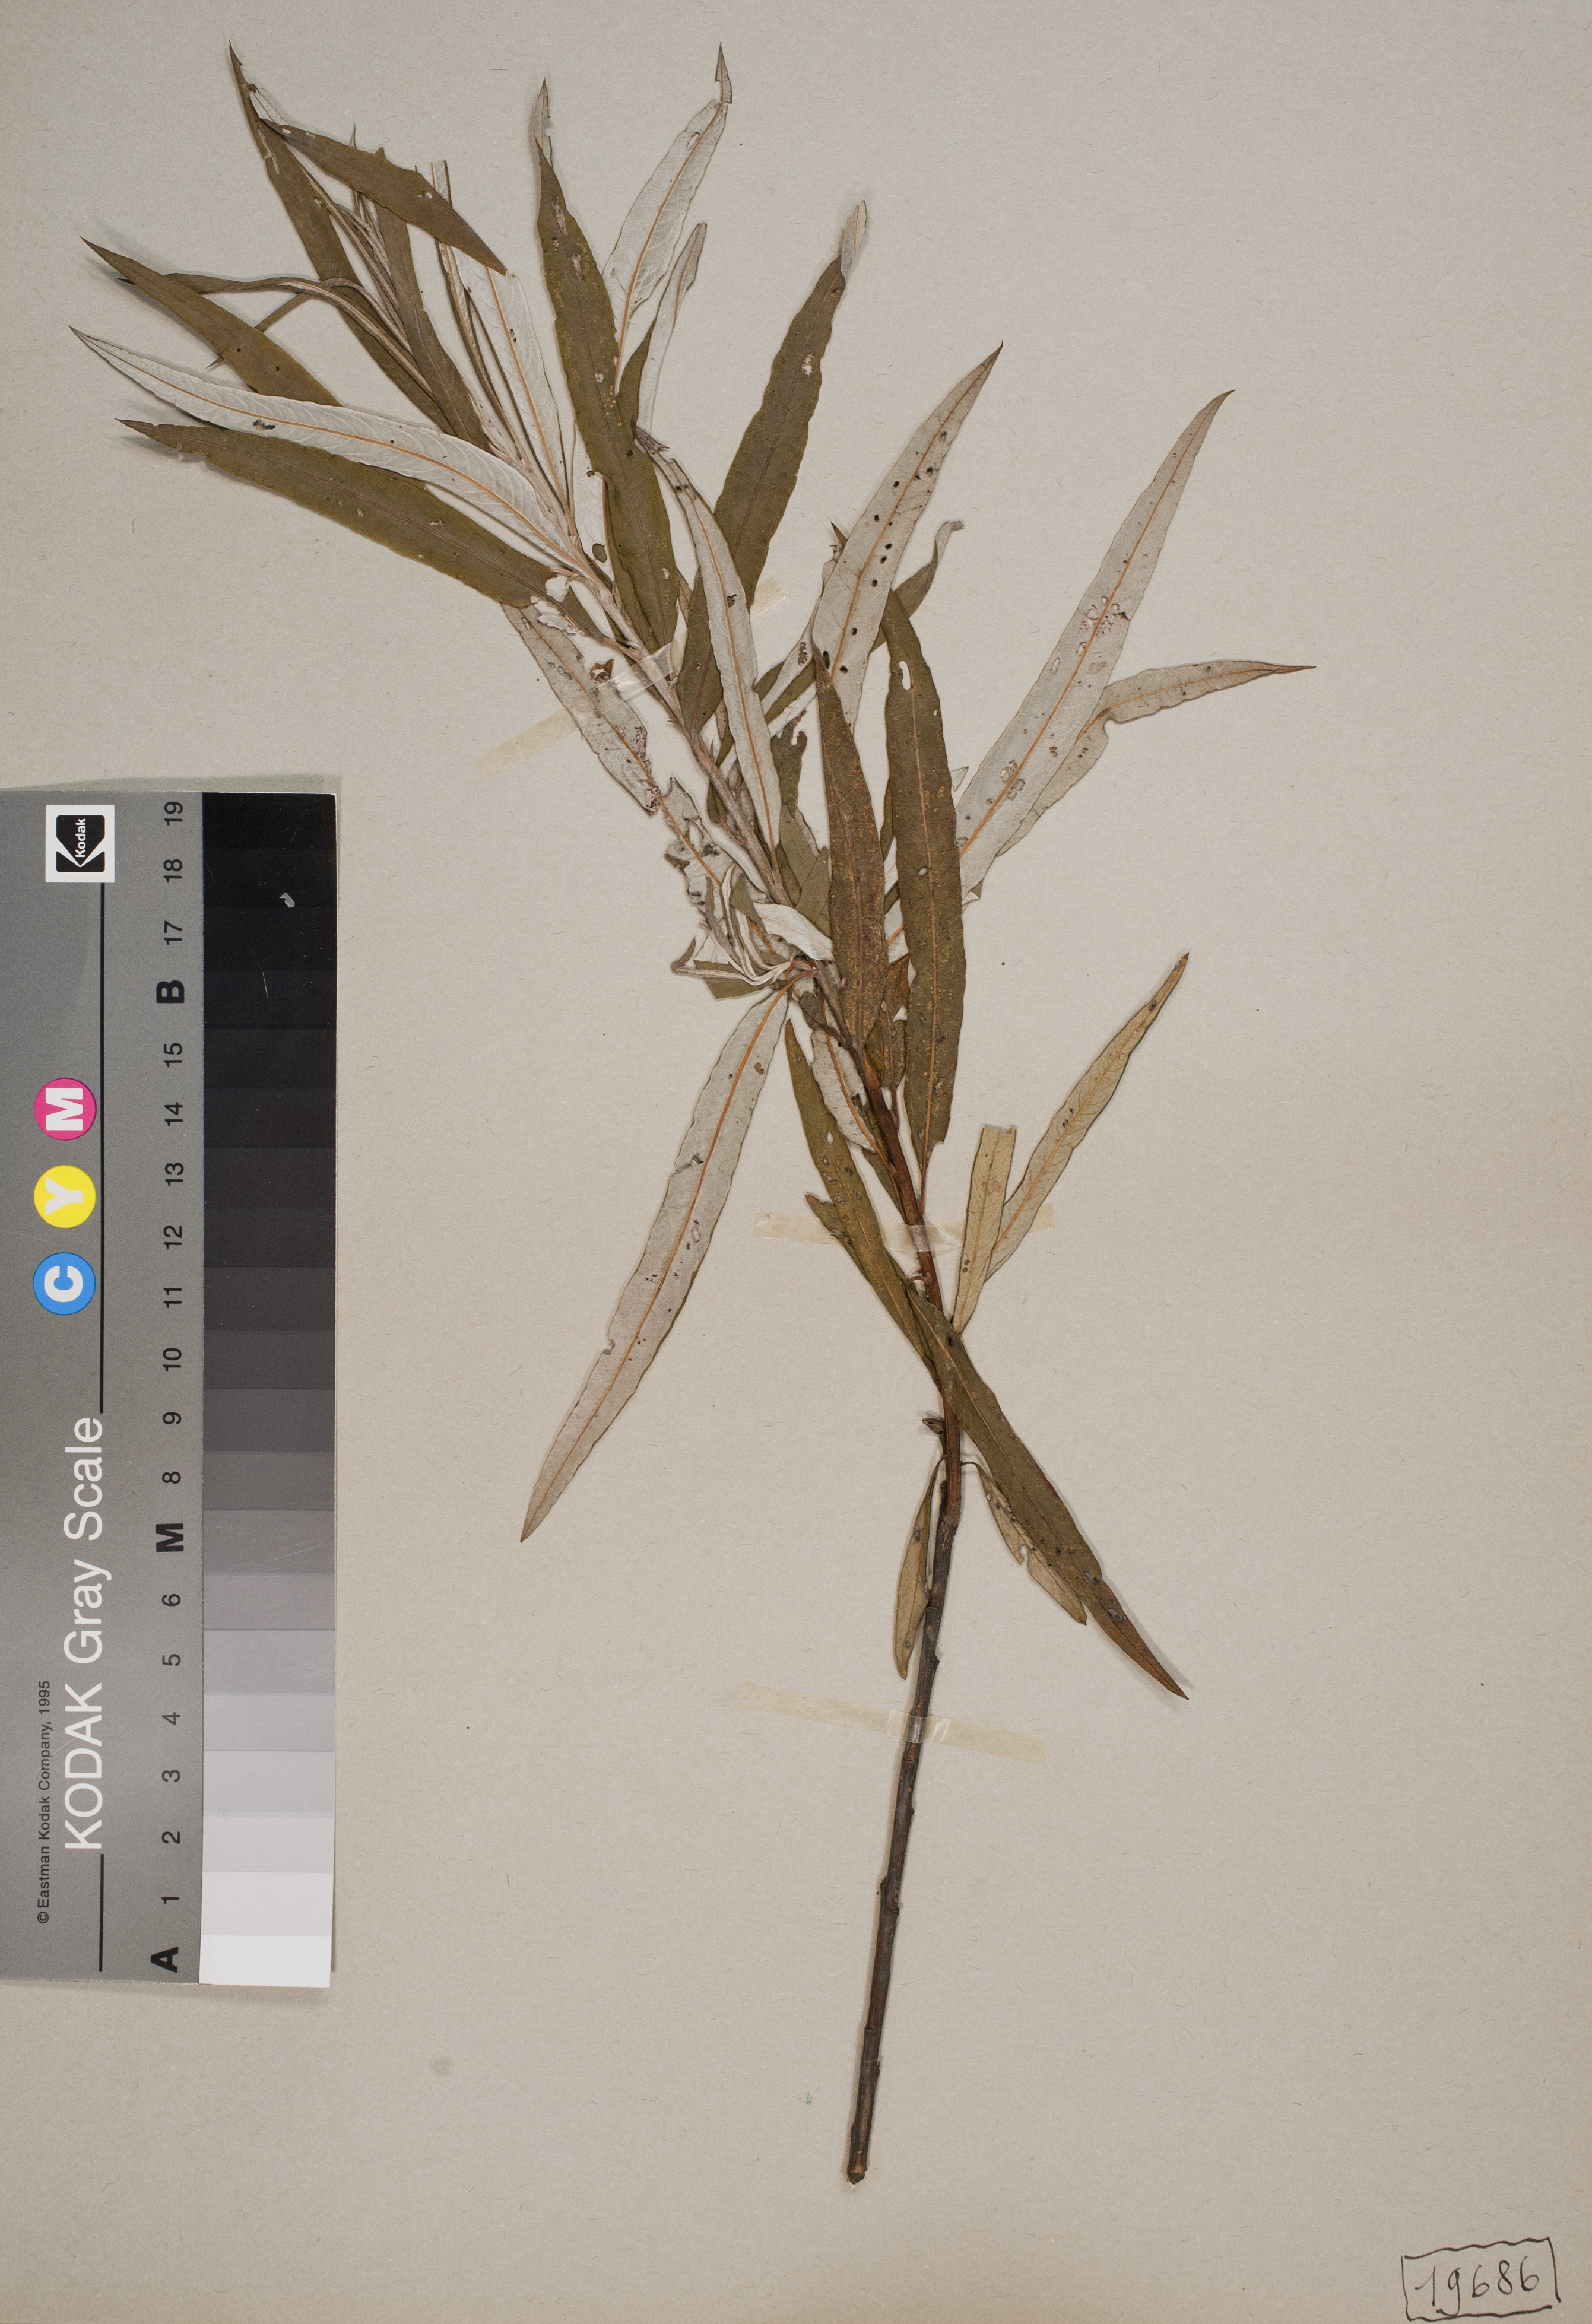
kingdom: Plantae
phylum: Tracheophyta
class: Magnoliopsida
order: Malpighiales
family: Salicaceae
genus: Salix
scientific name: Salix viminalis
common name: Osier
